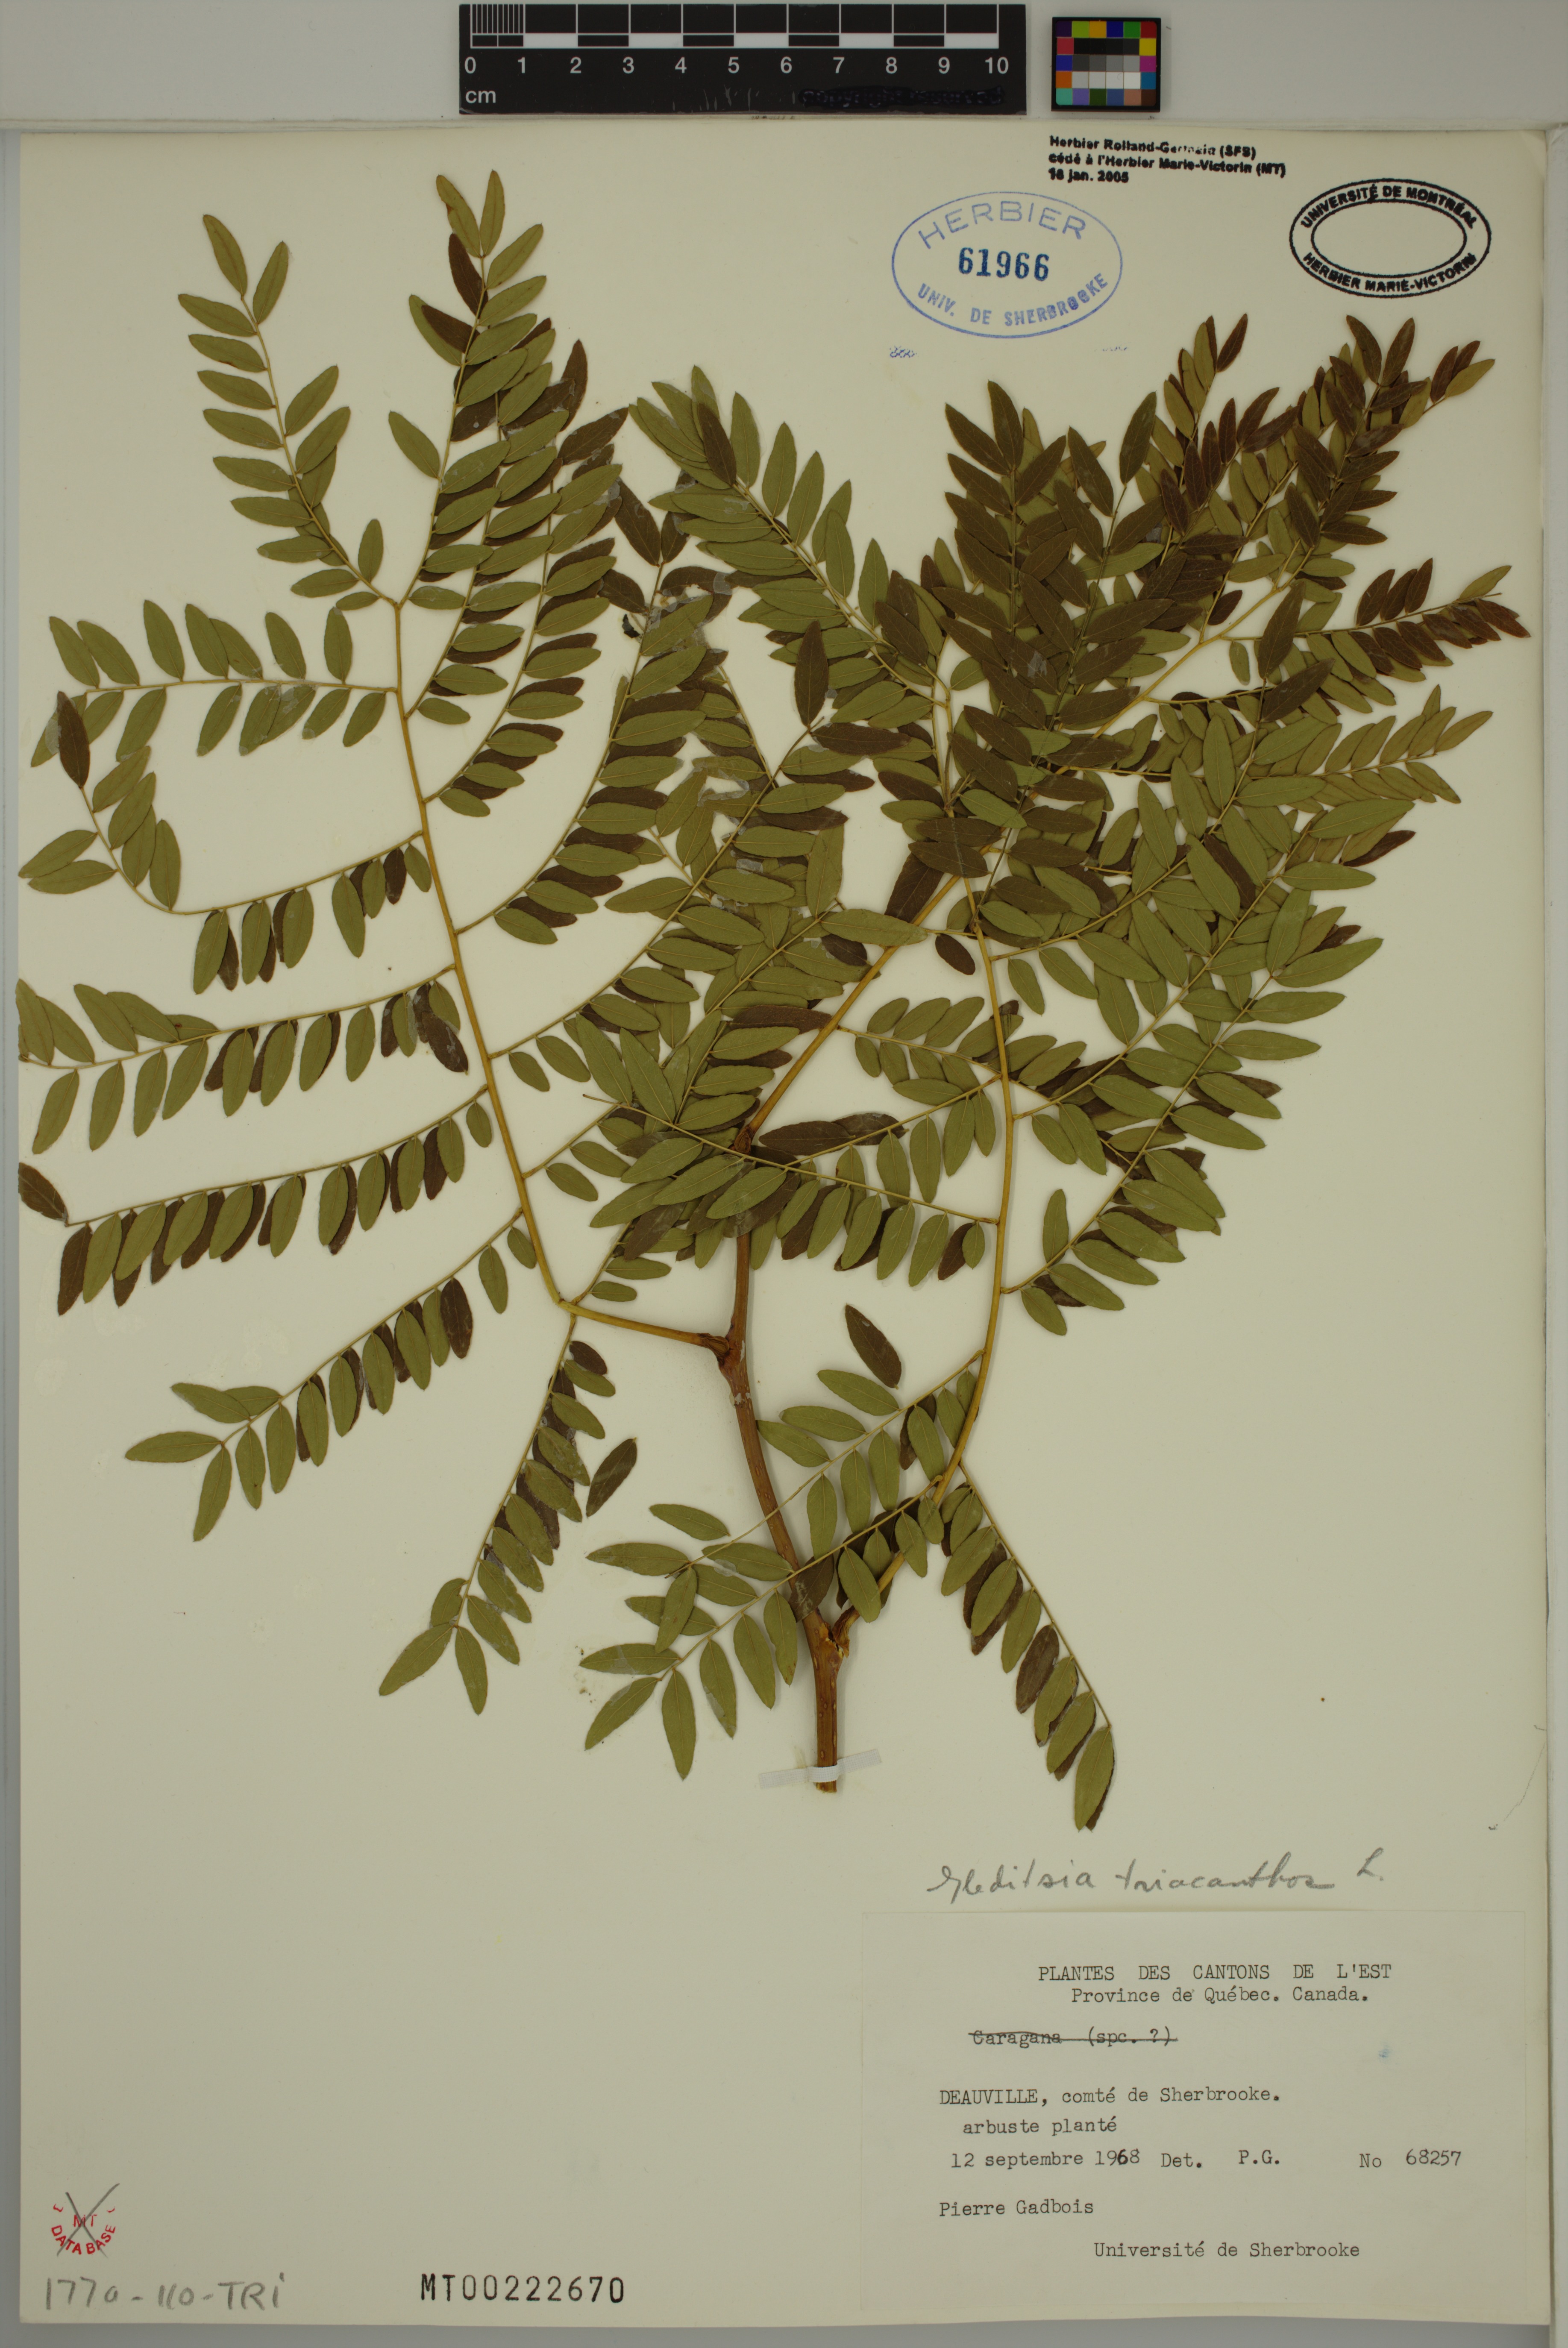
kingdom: Plantae
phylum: Tracheophyta
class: Magnoliopsida
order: Fabales
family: Fabaceae
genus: Gleditsia
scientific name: Gleditsia triacanthos
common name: Common honeylocust
